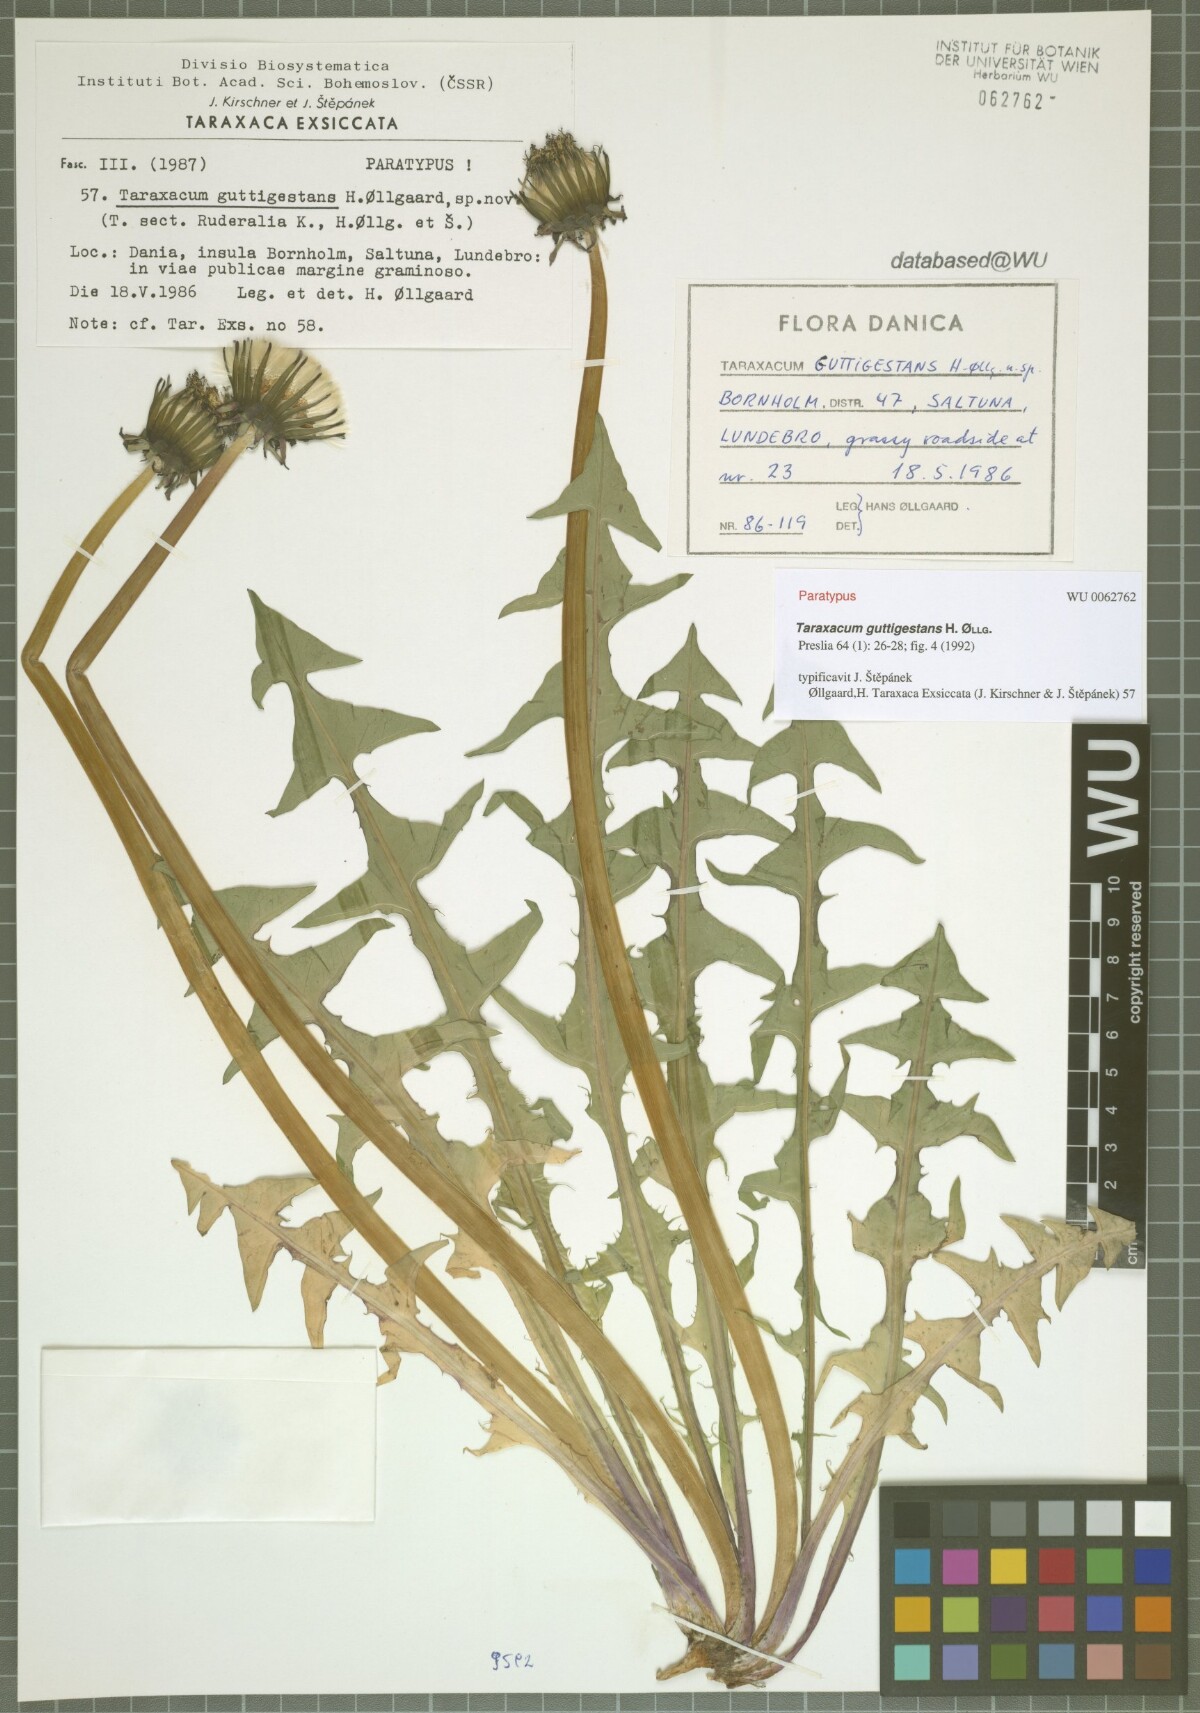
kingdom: Plantae
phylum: Tracheophyta
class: Magnoliopsida
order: Asterales
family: Asteraceae
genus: Taraxacum
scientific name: Taraxacum guttigestans
